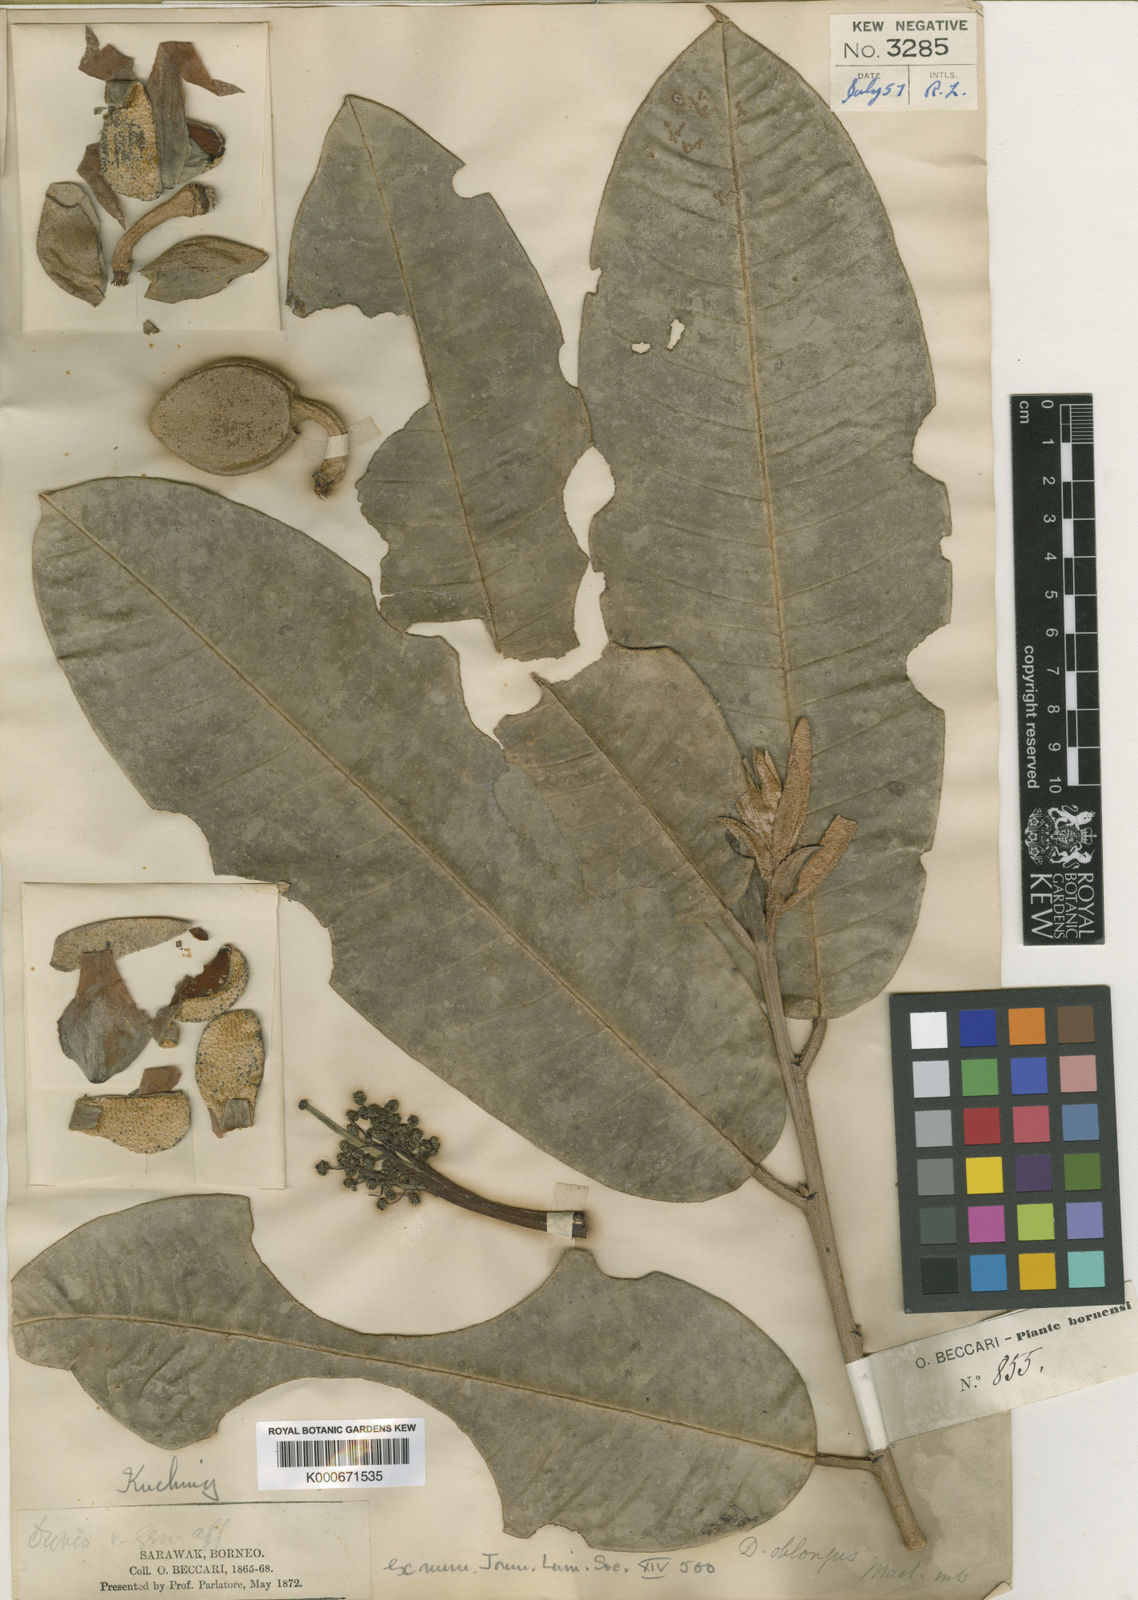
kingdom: Plantae
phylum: Tracheophyta
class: Magnoliopsida
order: Malvales
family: Malvaceae
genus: Durio
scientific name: Durio oblongus
